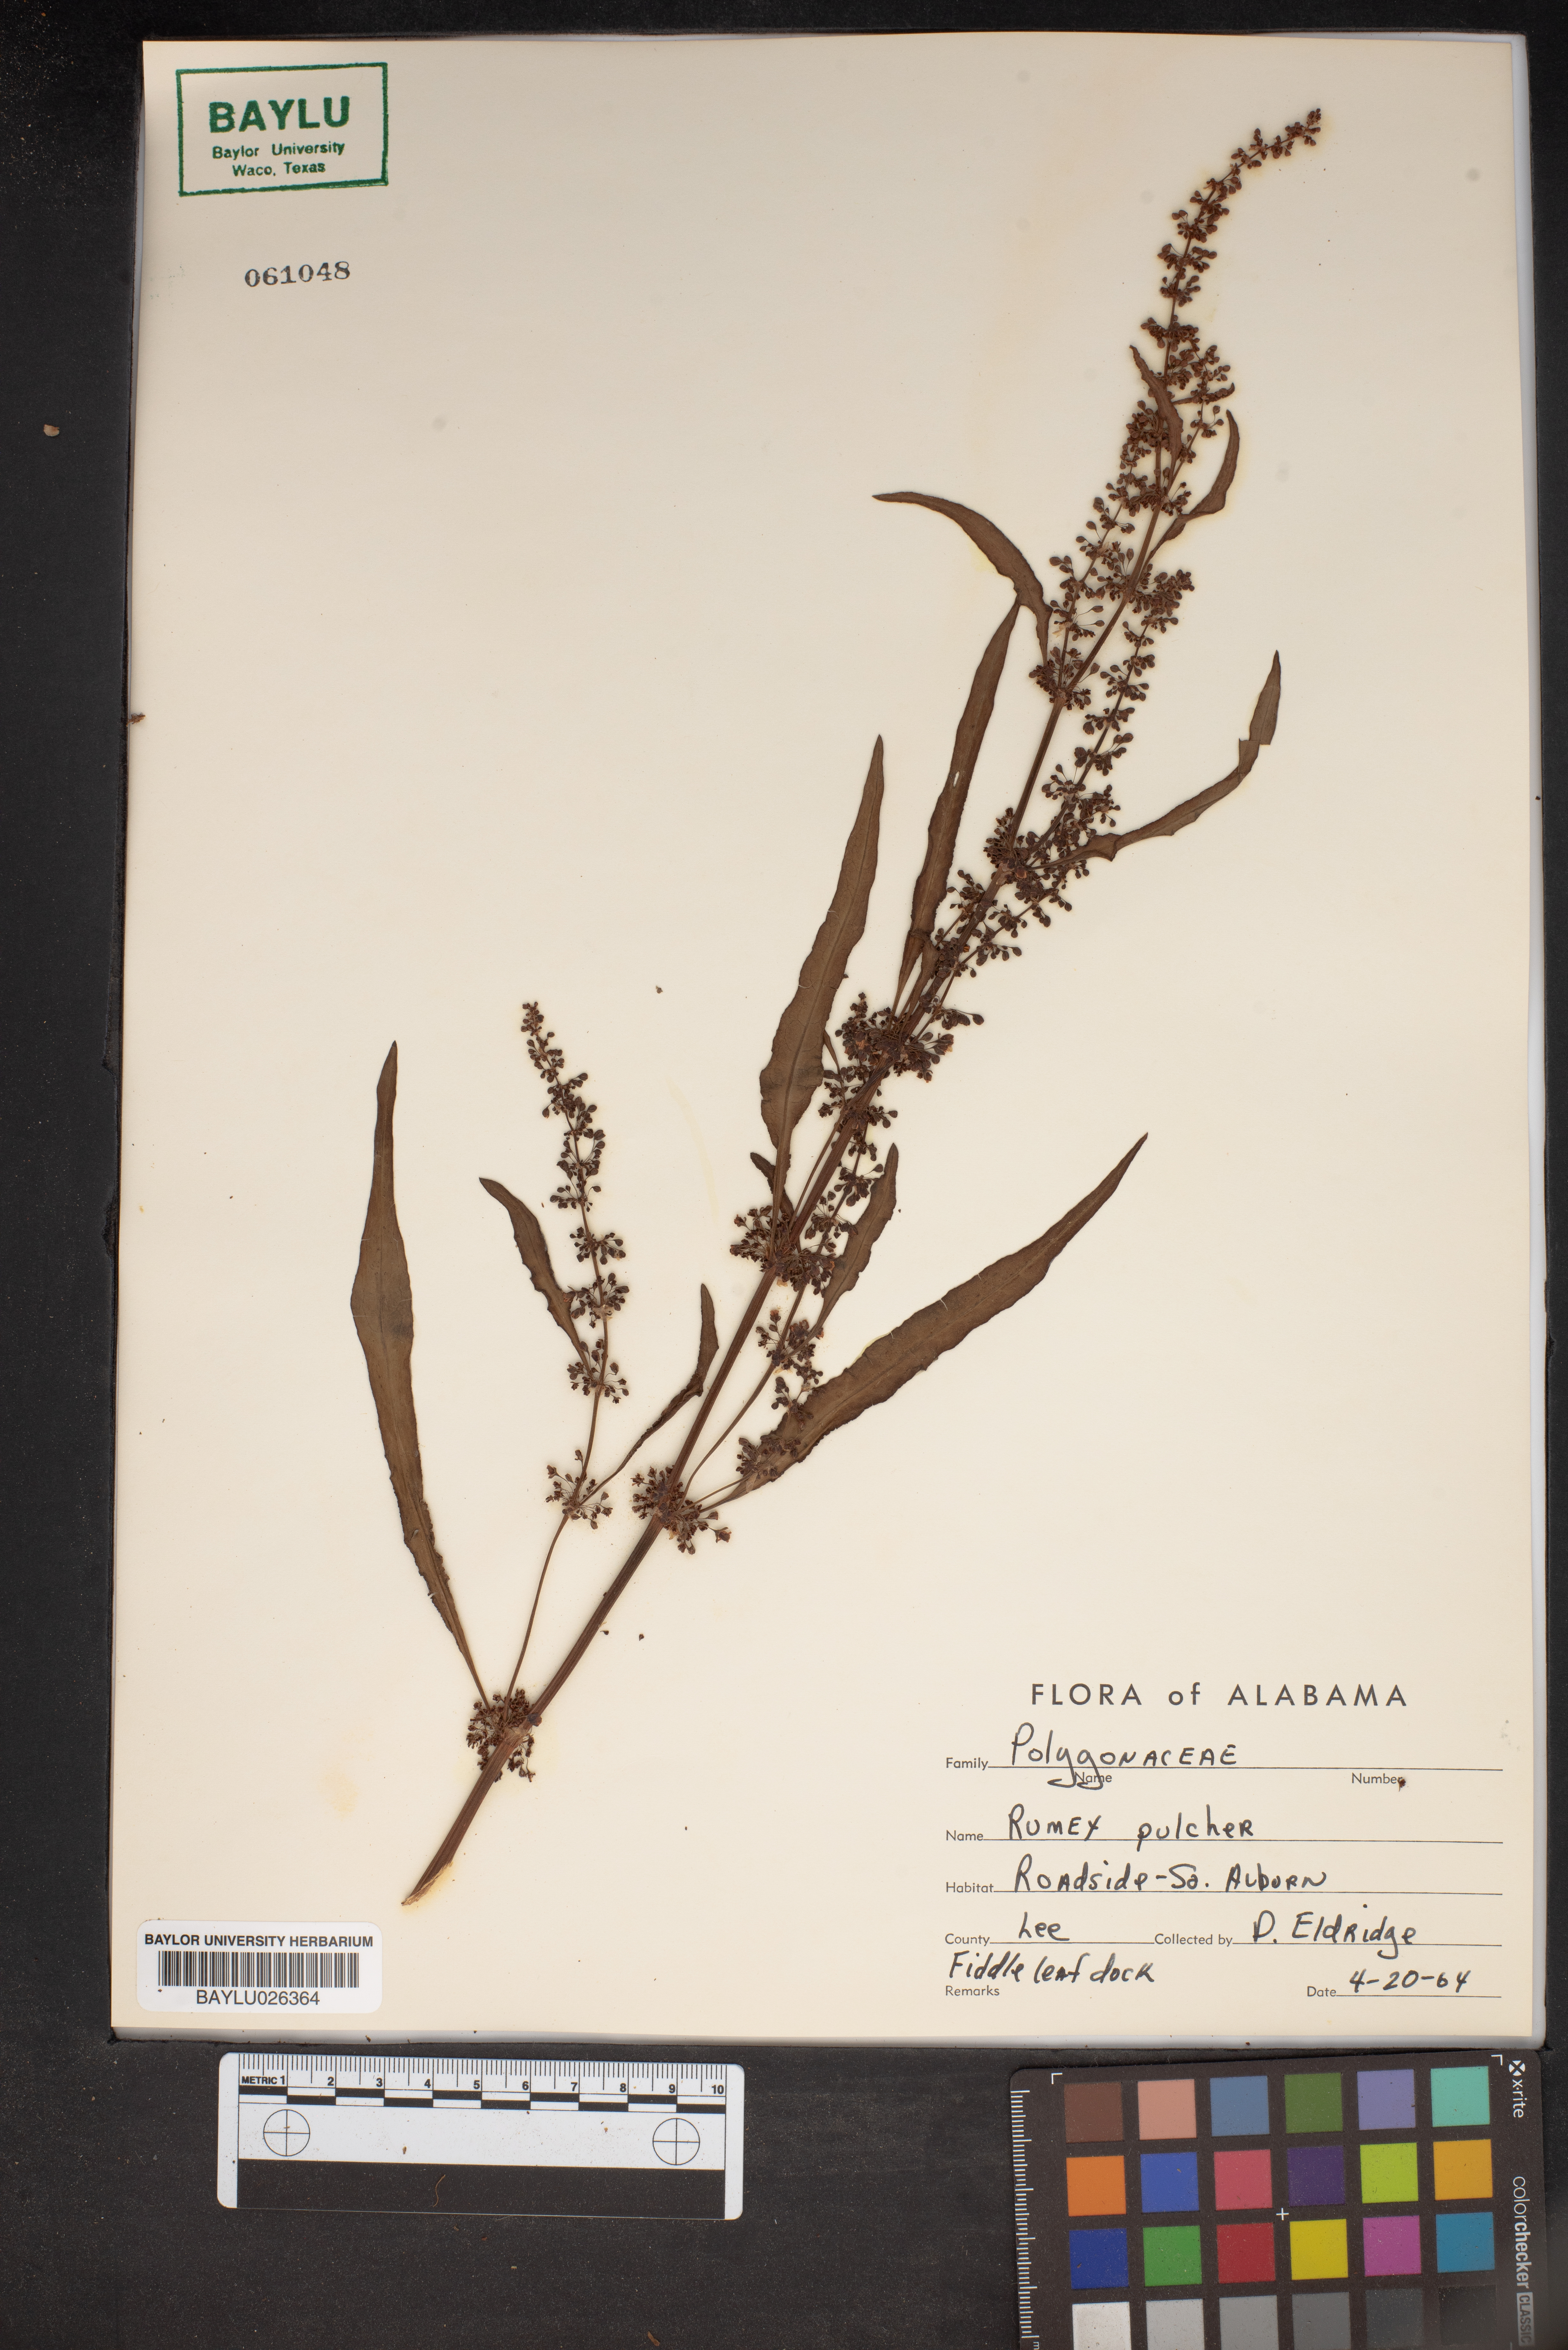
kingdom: Plantae
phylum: Tracheophyta
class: Magnoliopsida
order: Caryophyllales
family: Polygonaceae
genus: Rumex
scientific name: Rumex pulcher
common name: Fiddle dock
